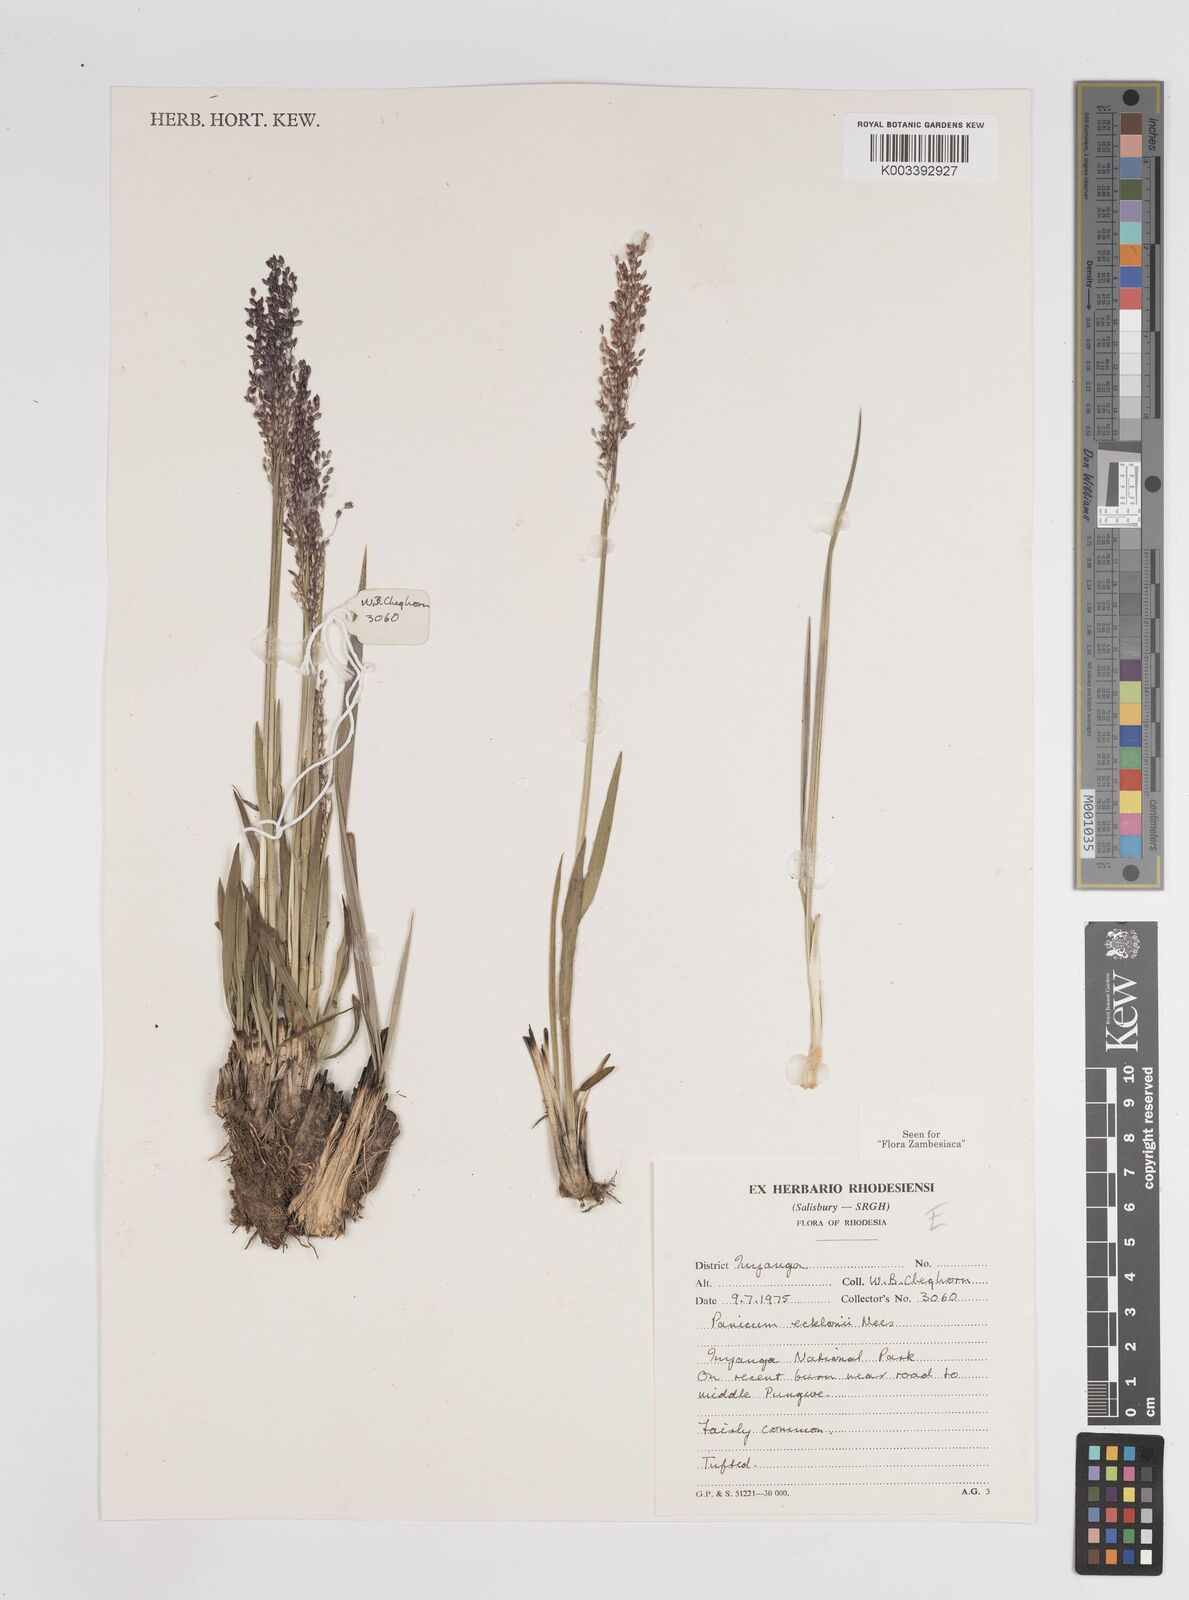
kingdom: Plantae
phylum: Tracheophyta
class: Liliopsida
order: Poales
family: Poaceae
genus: Adenochloa
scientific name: Adenochloa ecklonii
